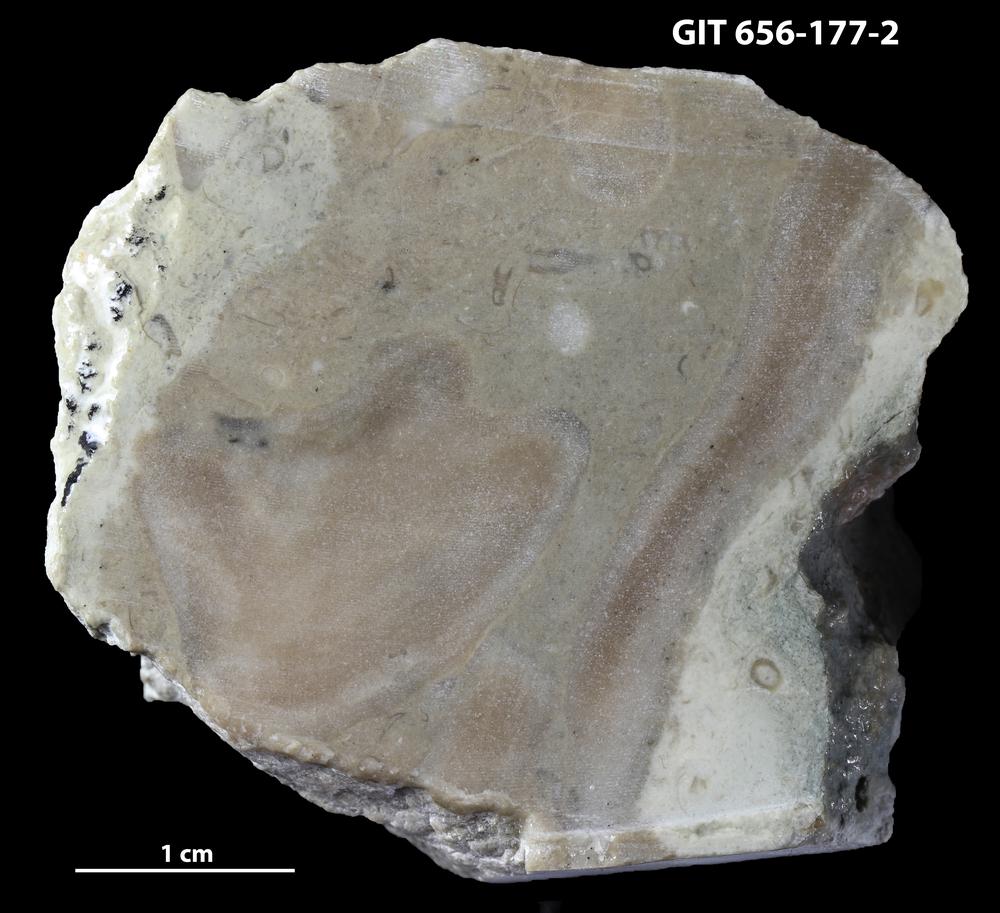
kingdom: Animalia
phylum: Porifera
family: Actinostromatidae
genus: Plectostroma
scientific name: Plectostroma
